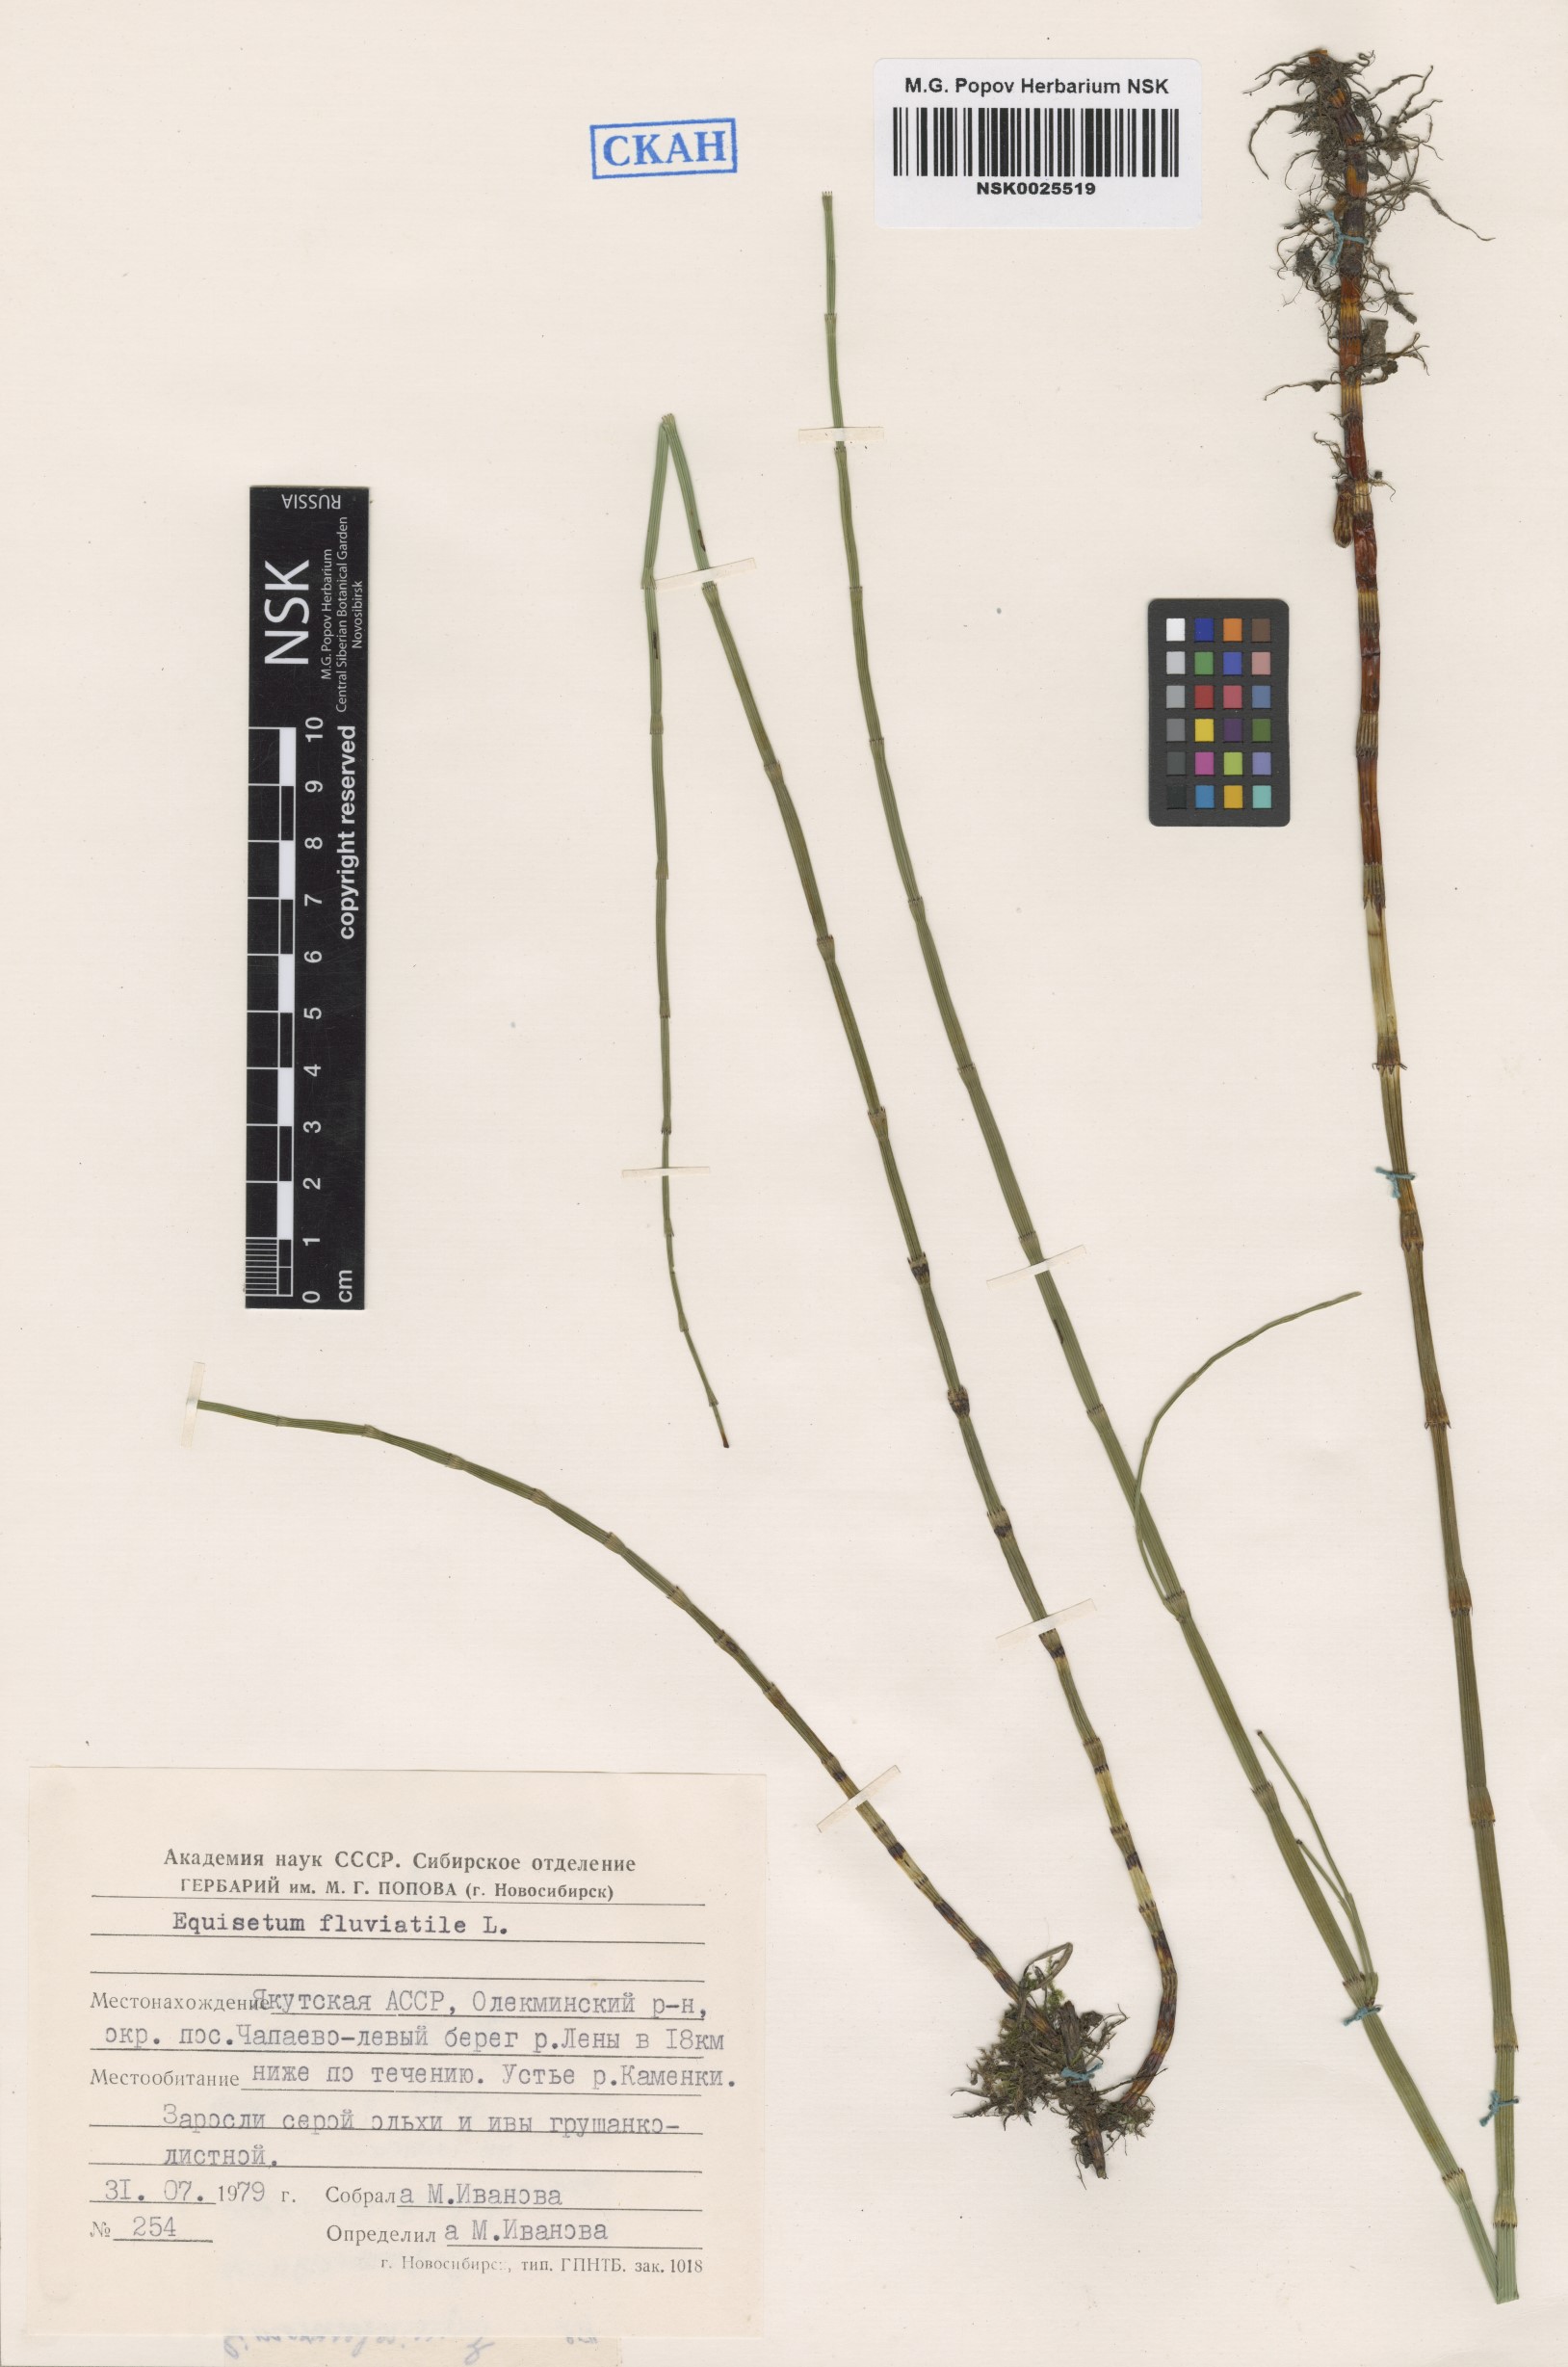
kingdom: Plantae
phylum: Tracheophyta
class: Polypodiopsida
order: Equisetales
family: Equisetaceae
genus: Equisetum
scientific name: Equisetum fluviatile
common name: Water horsetail
